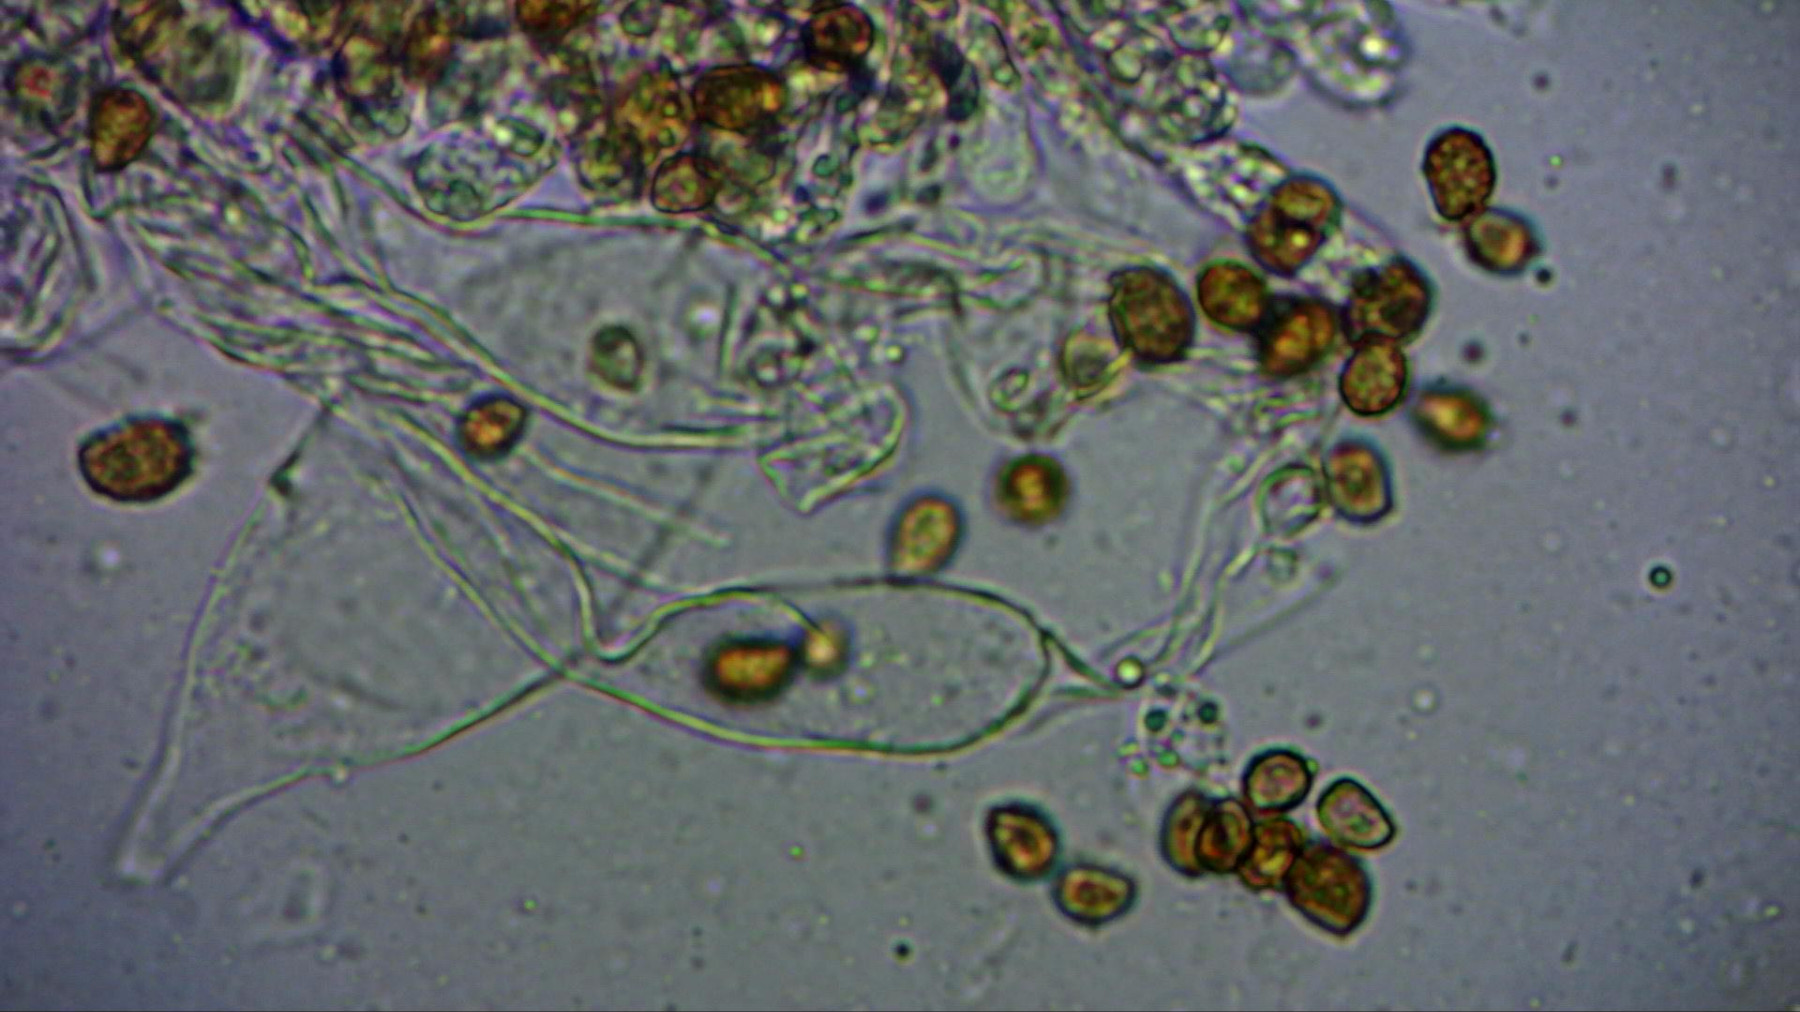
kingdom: Fungi
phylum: Basidiomycota
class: Agaricomycetes
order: Agaricales
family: Cortinariaceae
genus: Cortinarius
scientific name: Cortinarius
